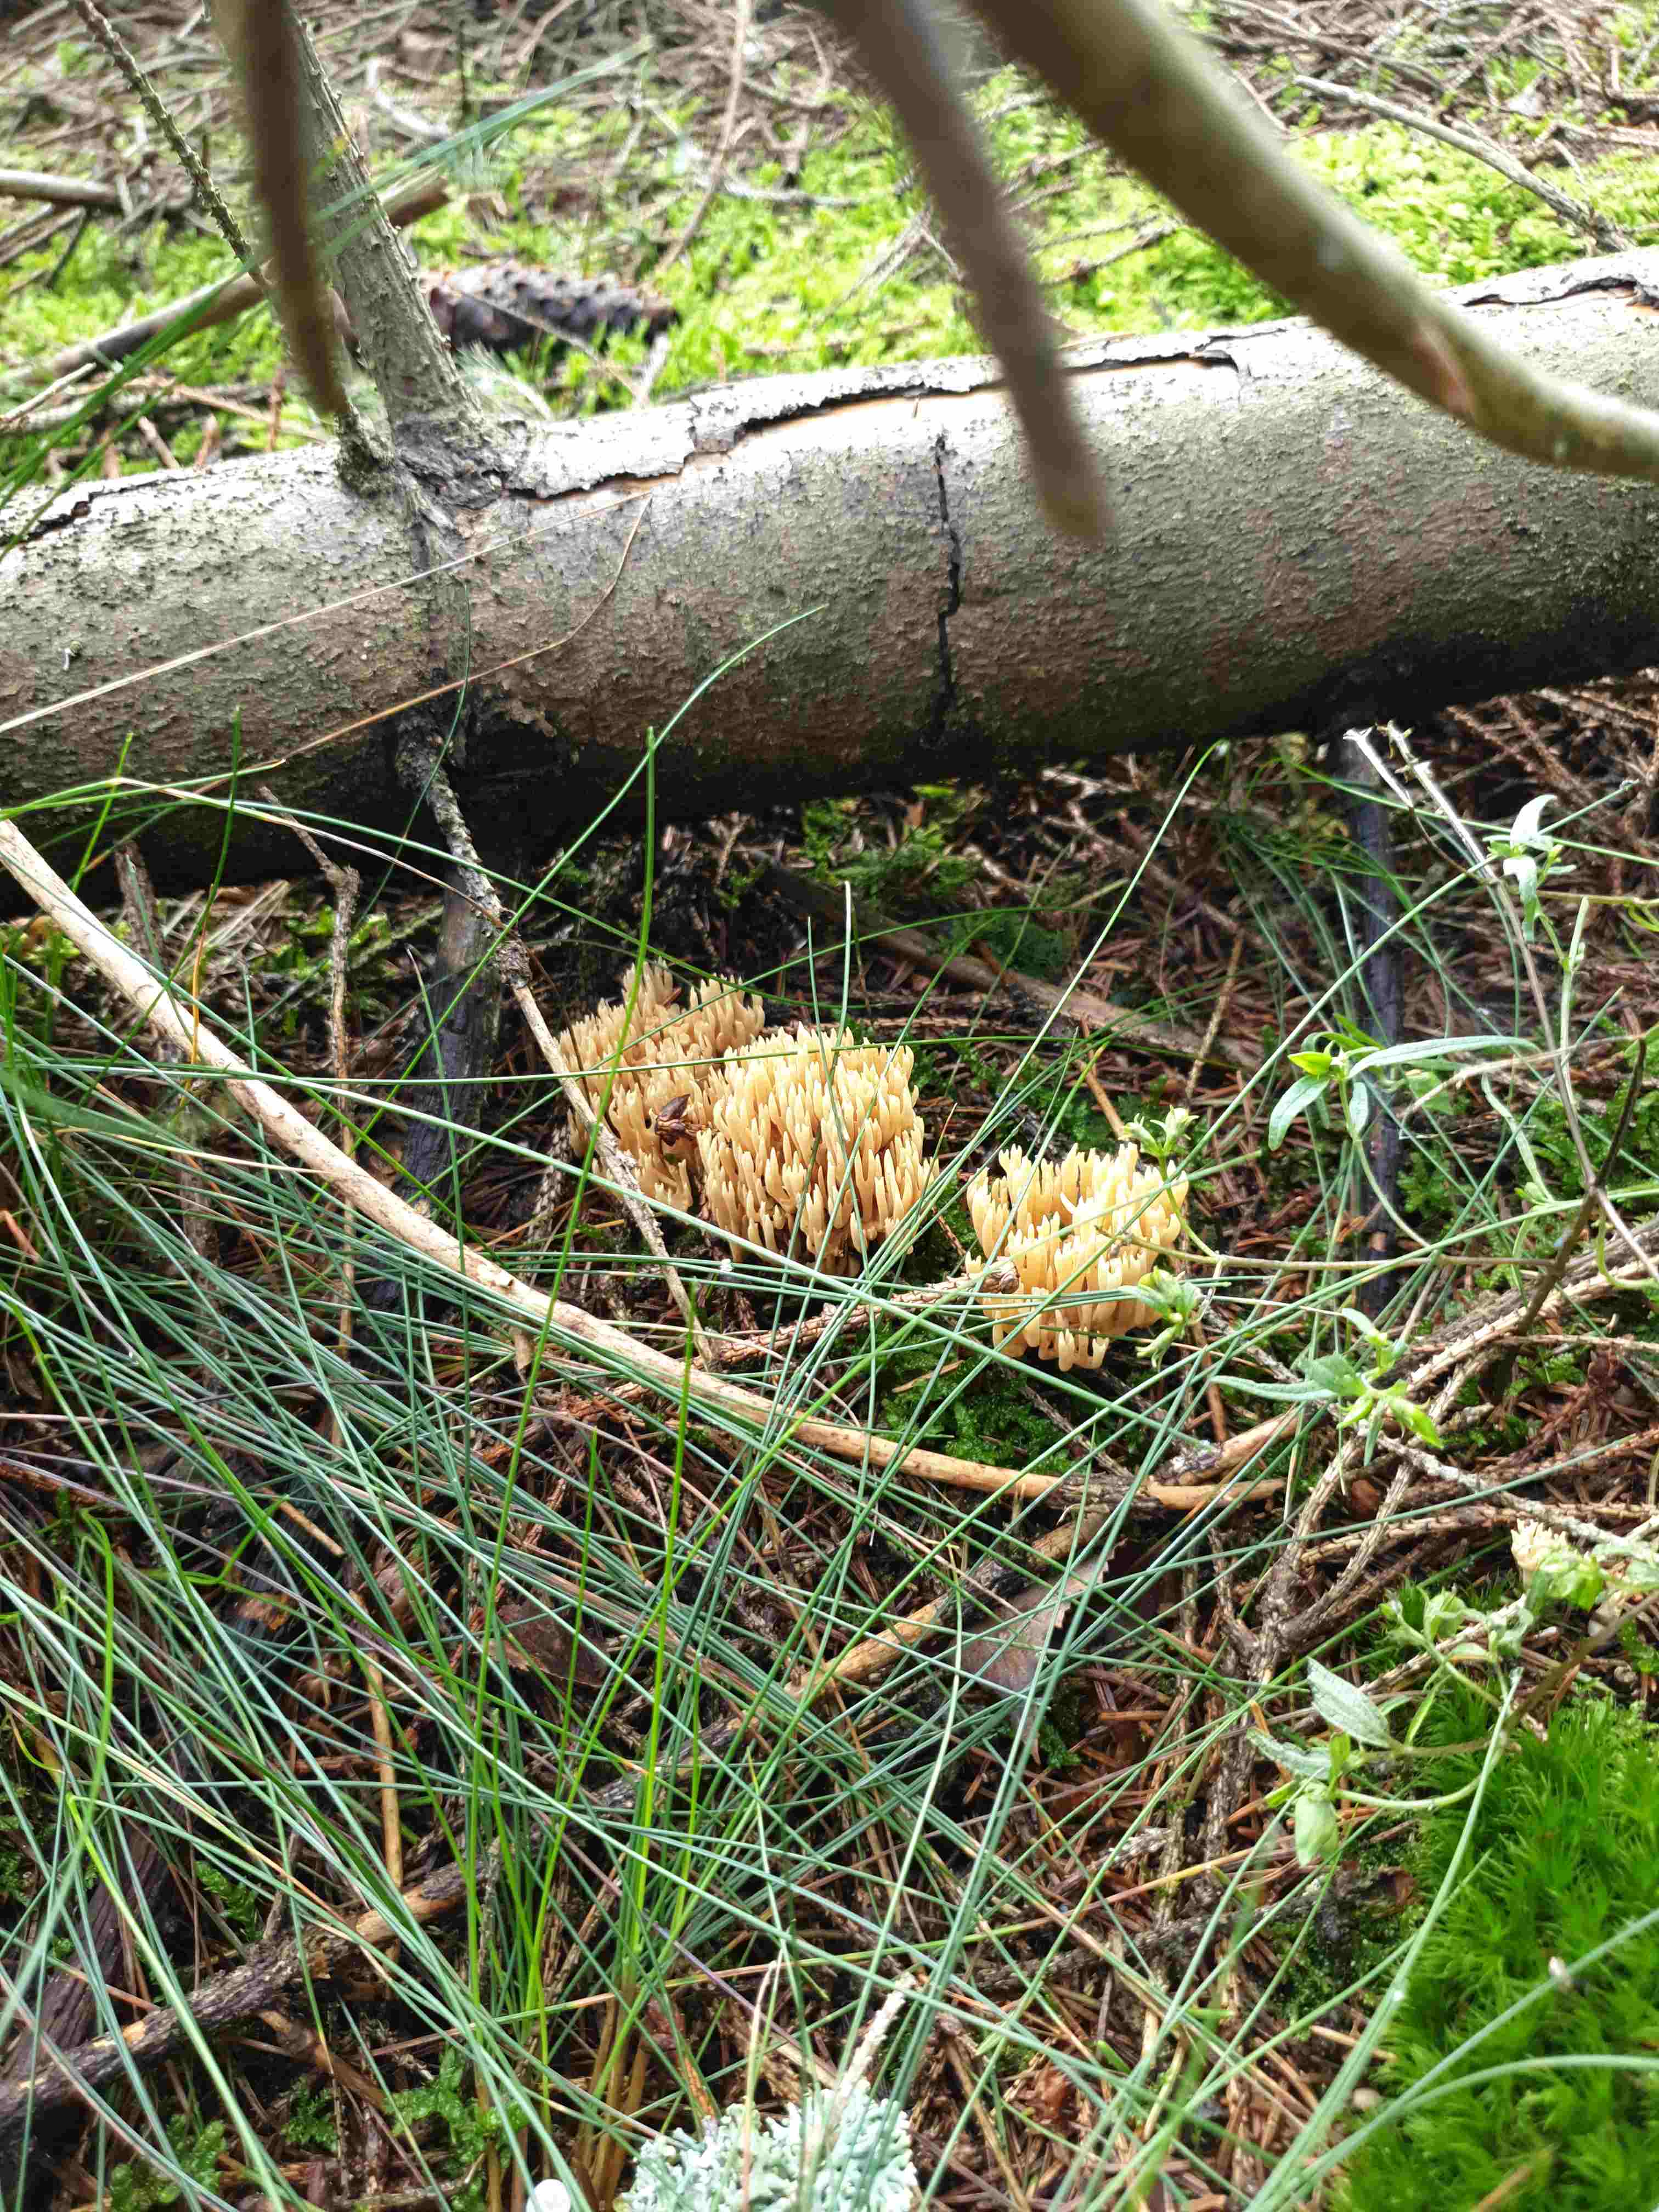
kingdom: Fungi
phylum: Basidiomycota
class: Agaricomycetes
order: Gomphales
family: Gomphaceae
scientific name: Gomphaceae
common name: køllekantarelfamilien
